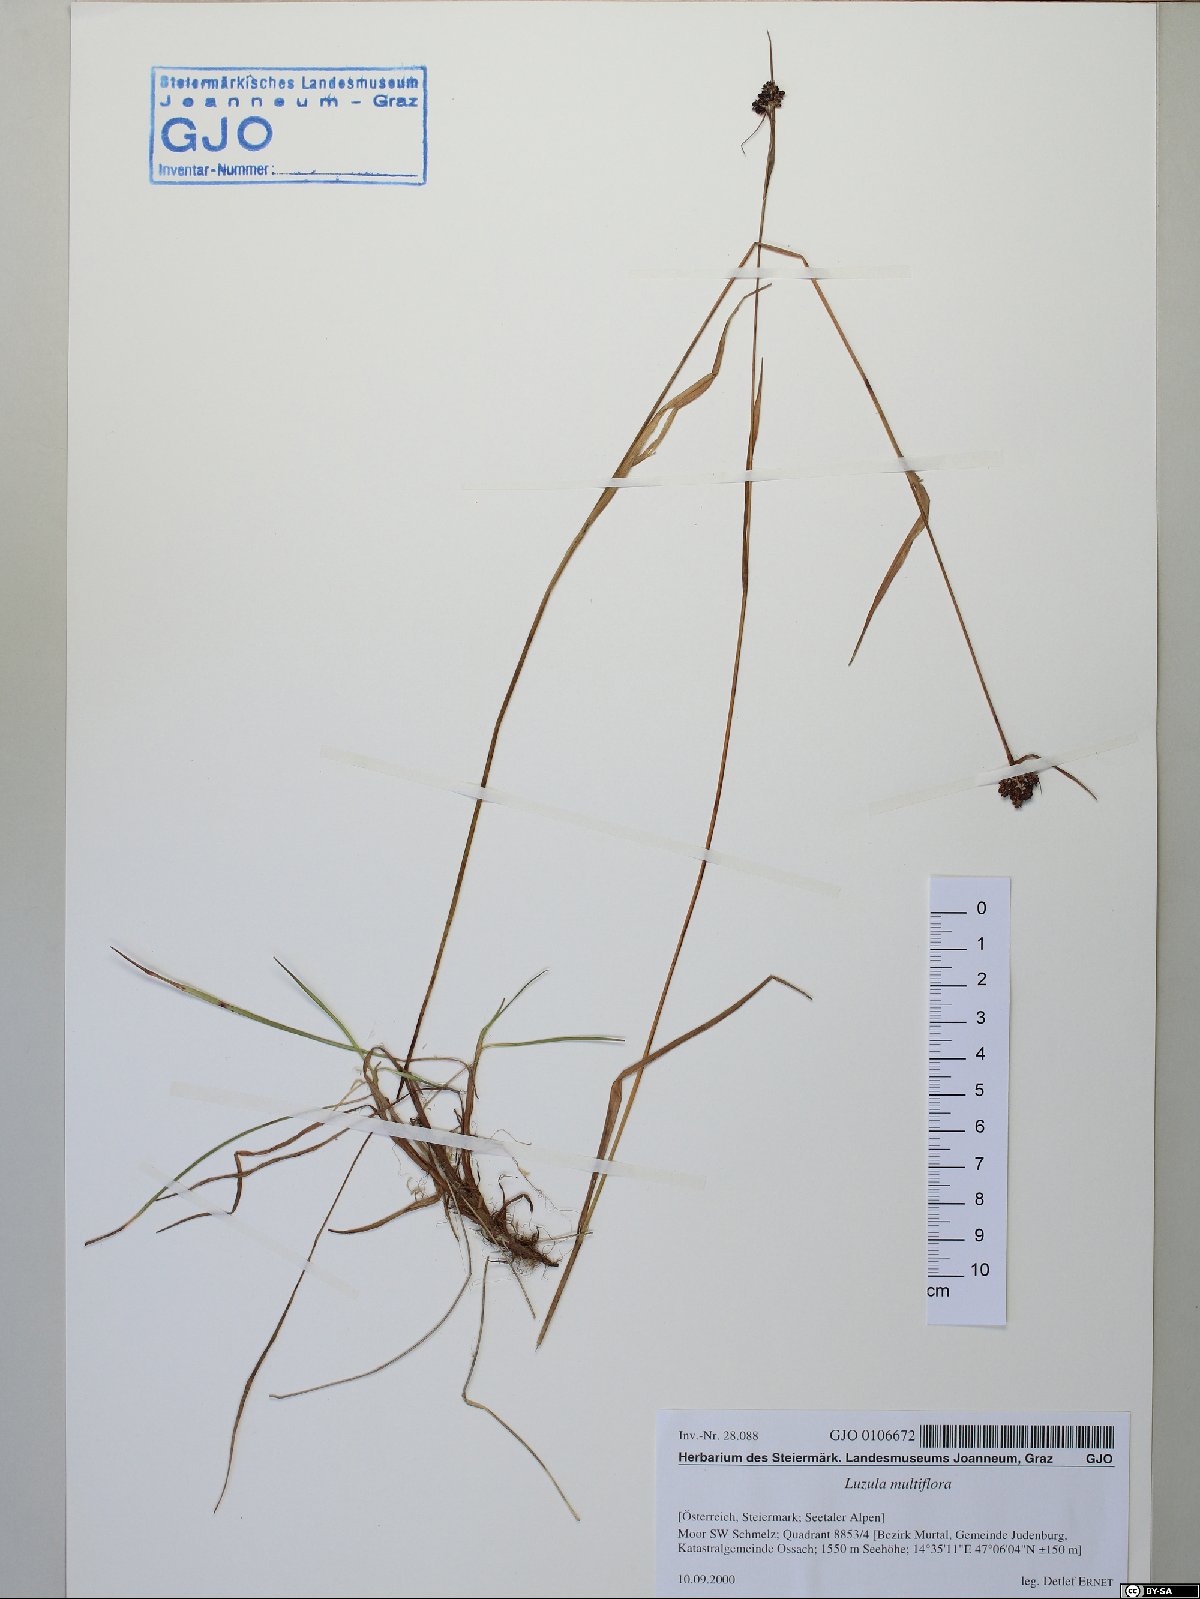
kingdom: Plantae
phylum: Tracheophyta
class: Liliopsida
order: Poales
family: Juncaceae
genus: Luzula
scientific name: Luzula multiflora
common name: Heath wood-rush
